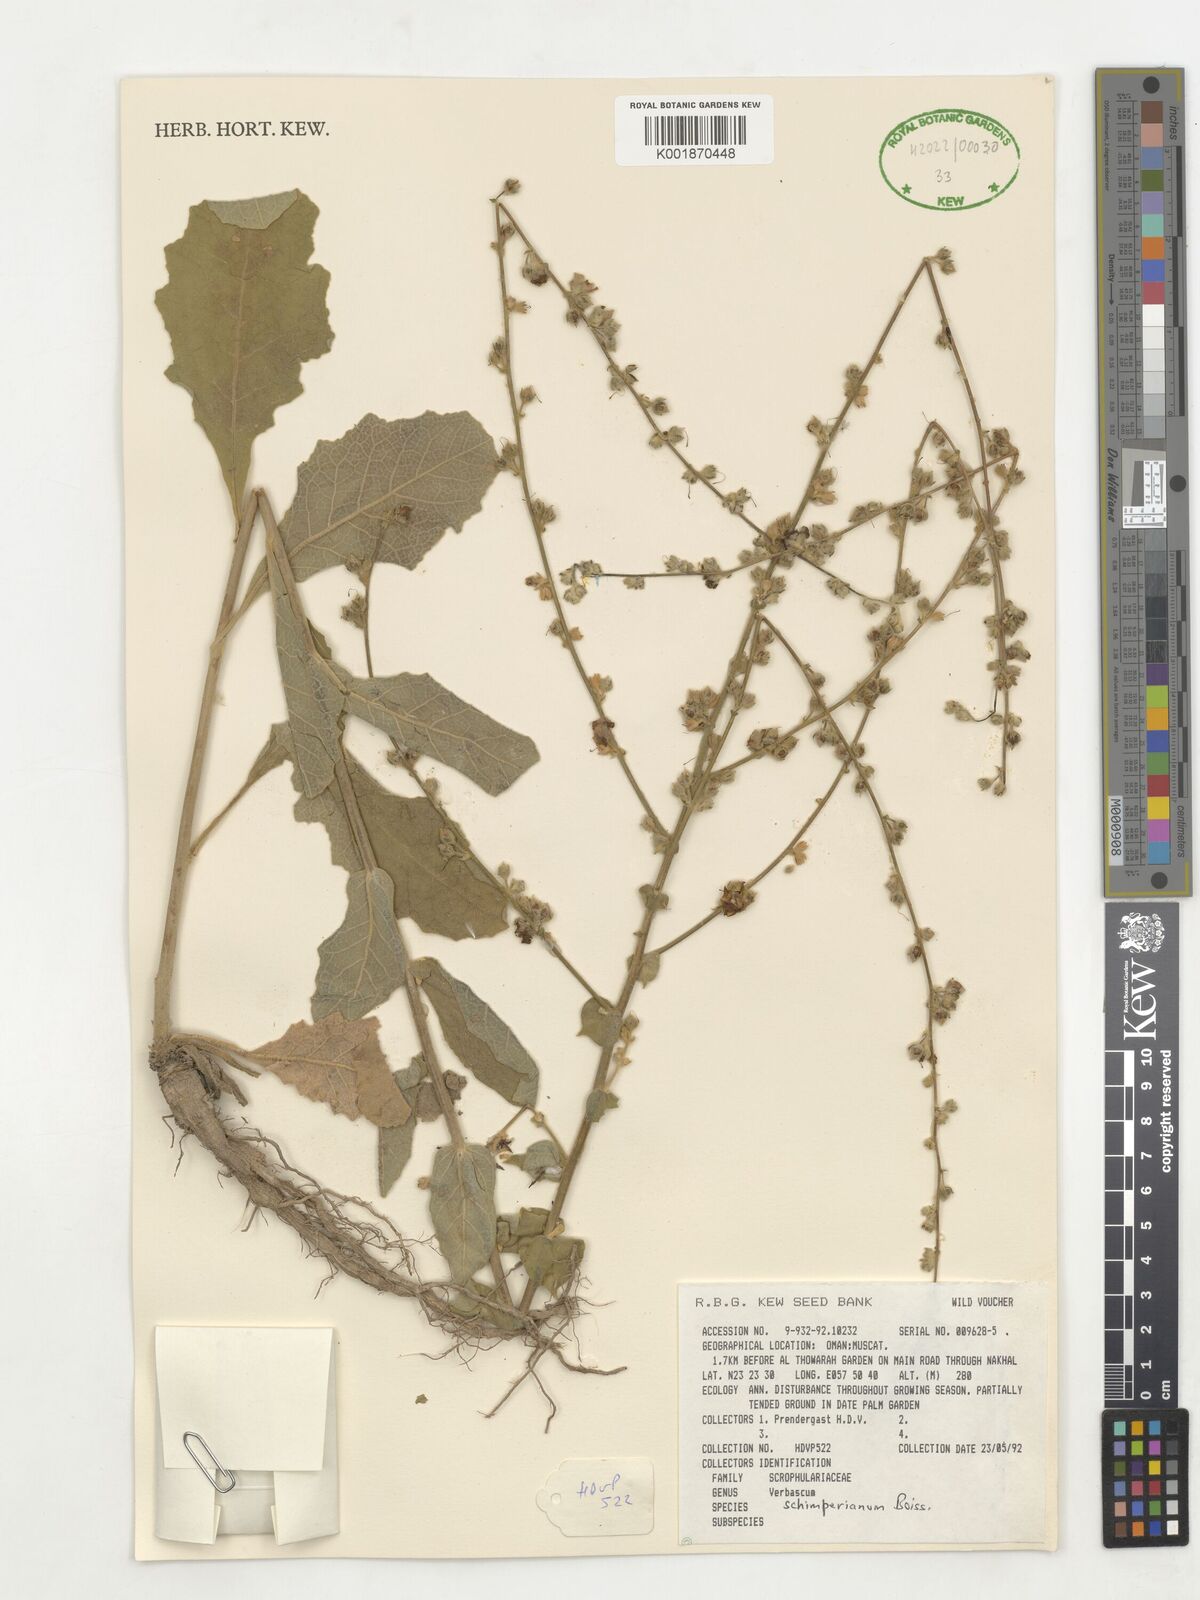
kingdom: Plantae
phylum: Tracheophyta
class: Magnoliopsida
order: Lamiales
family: Scrophulariaceae
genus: Verbascum
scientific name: Verbascum schimperianum
